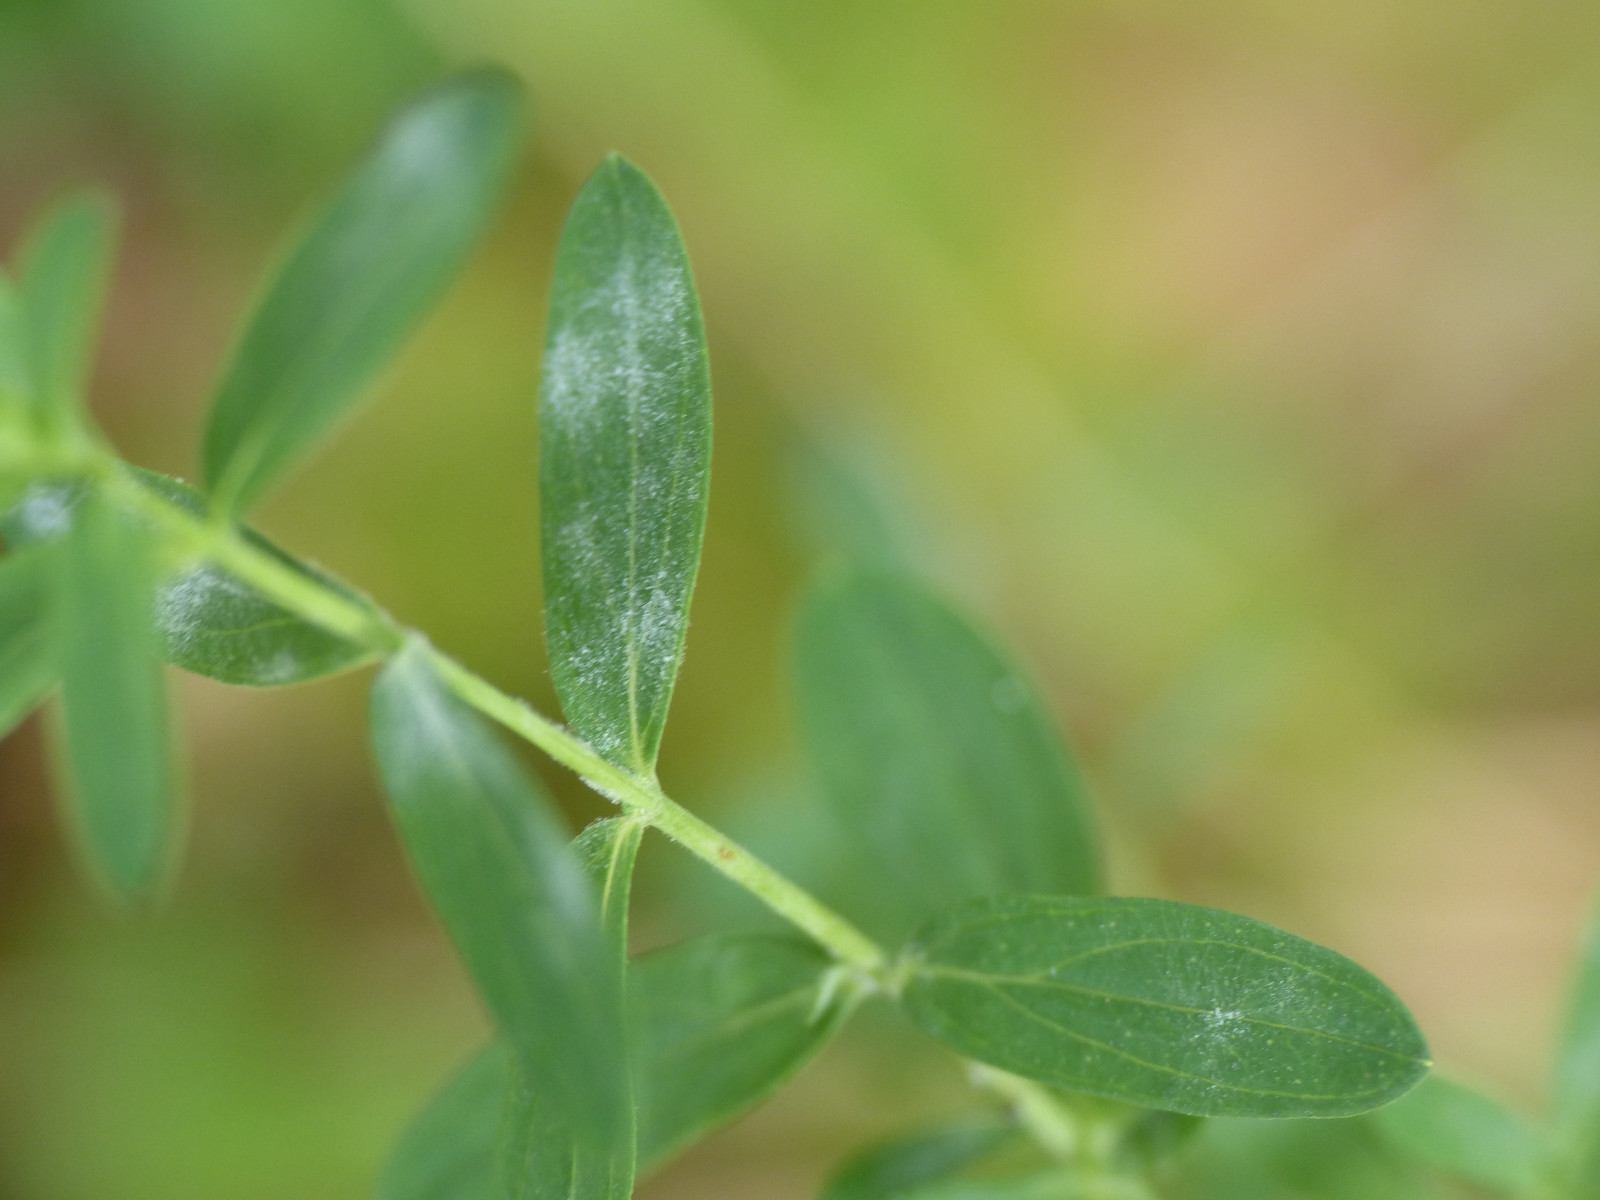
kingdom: Fungi
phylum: Ascomycota
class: Leotiomycetes
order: Helotiales
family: Erysiphaceae
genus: Erysiphe
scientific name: Erysiphe hyperici
